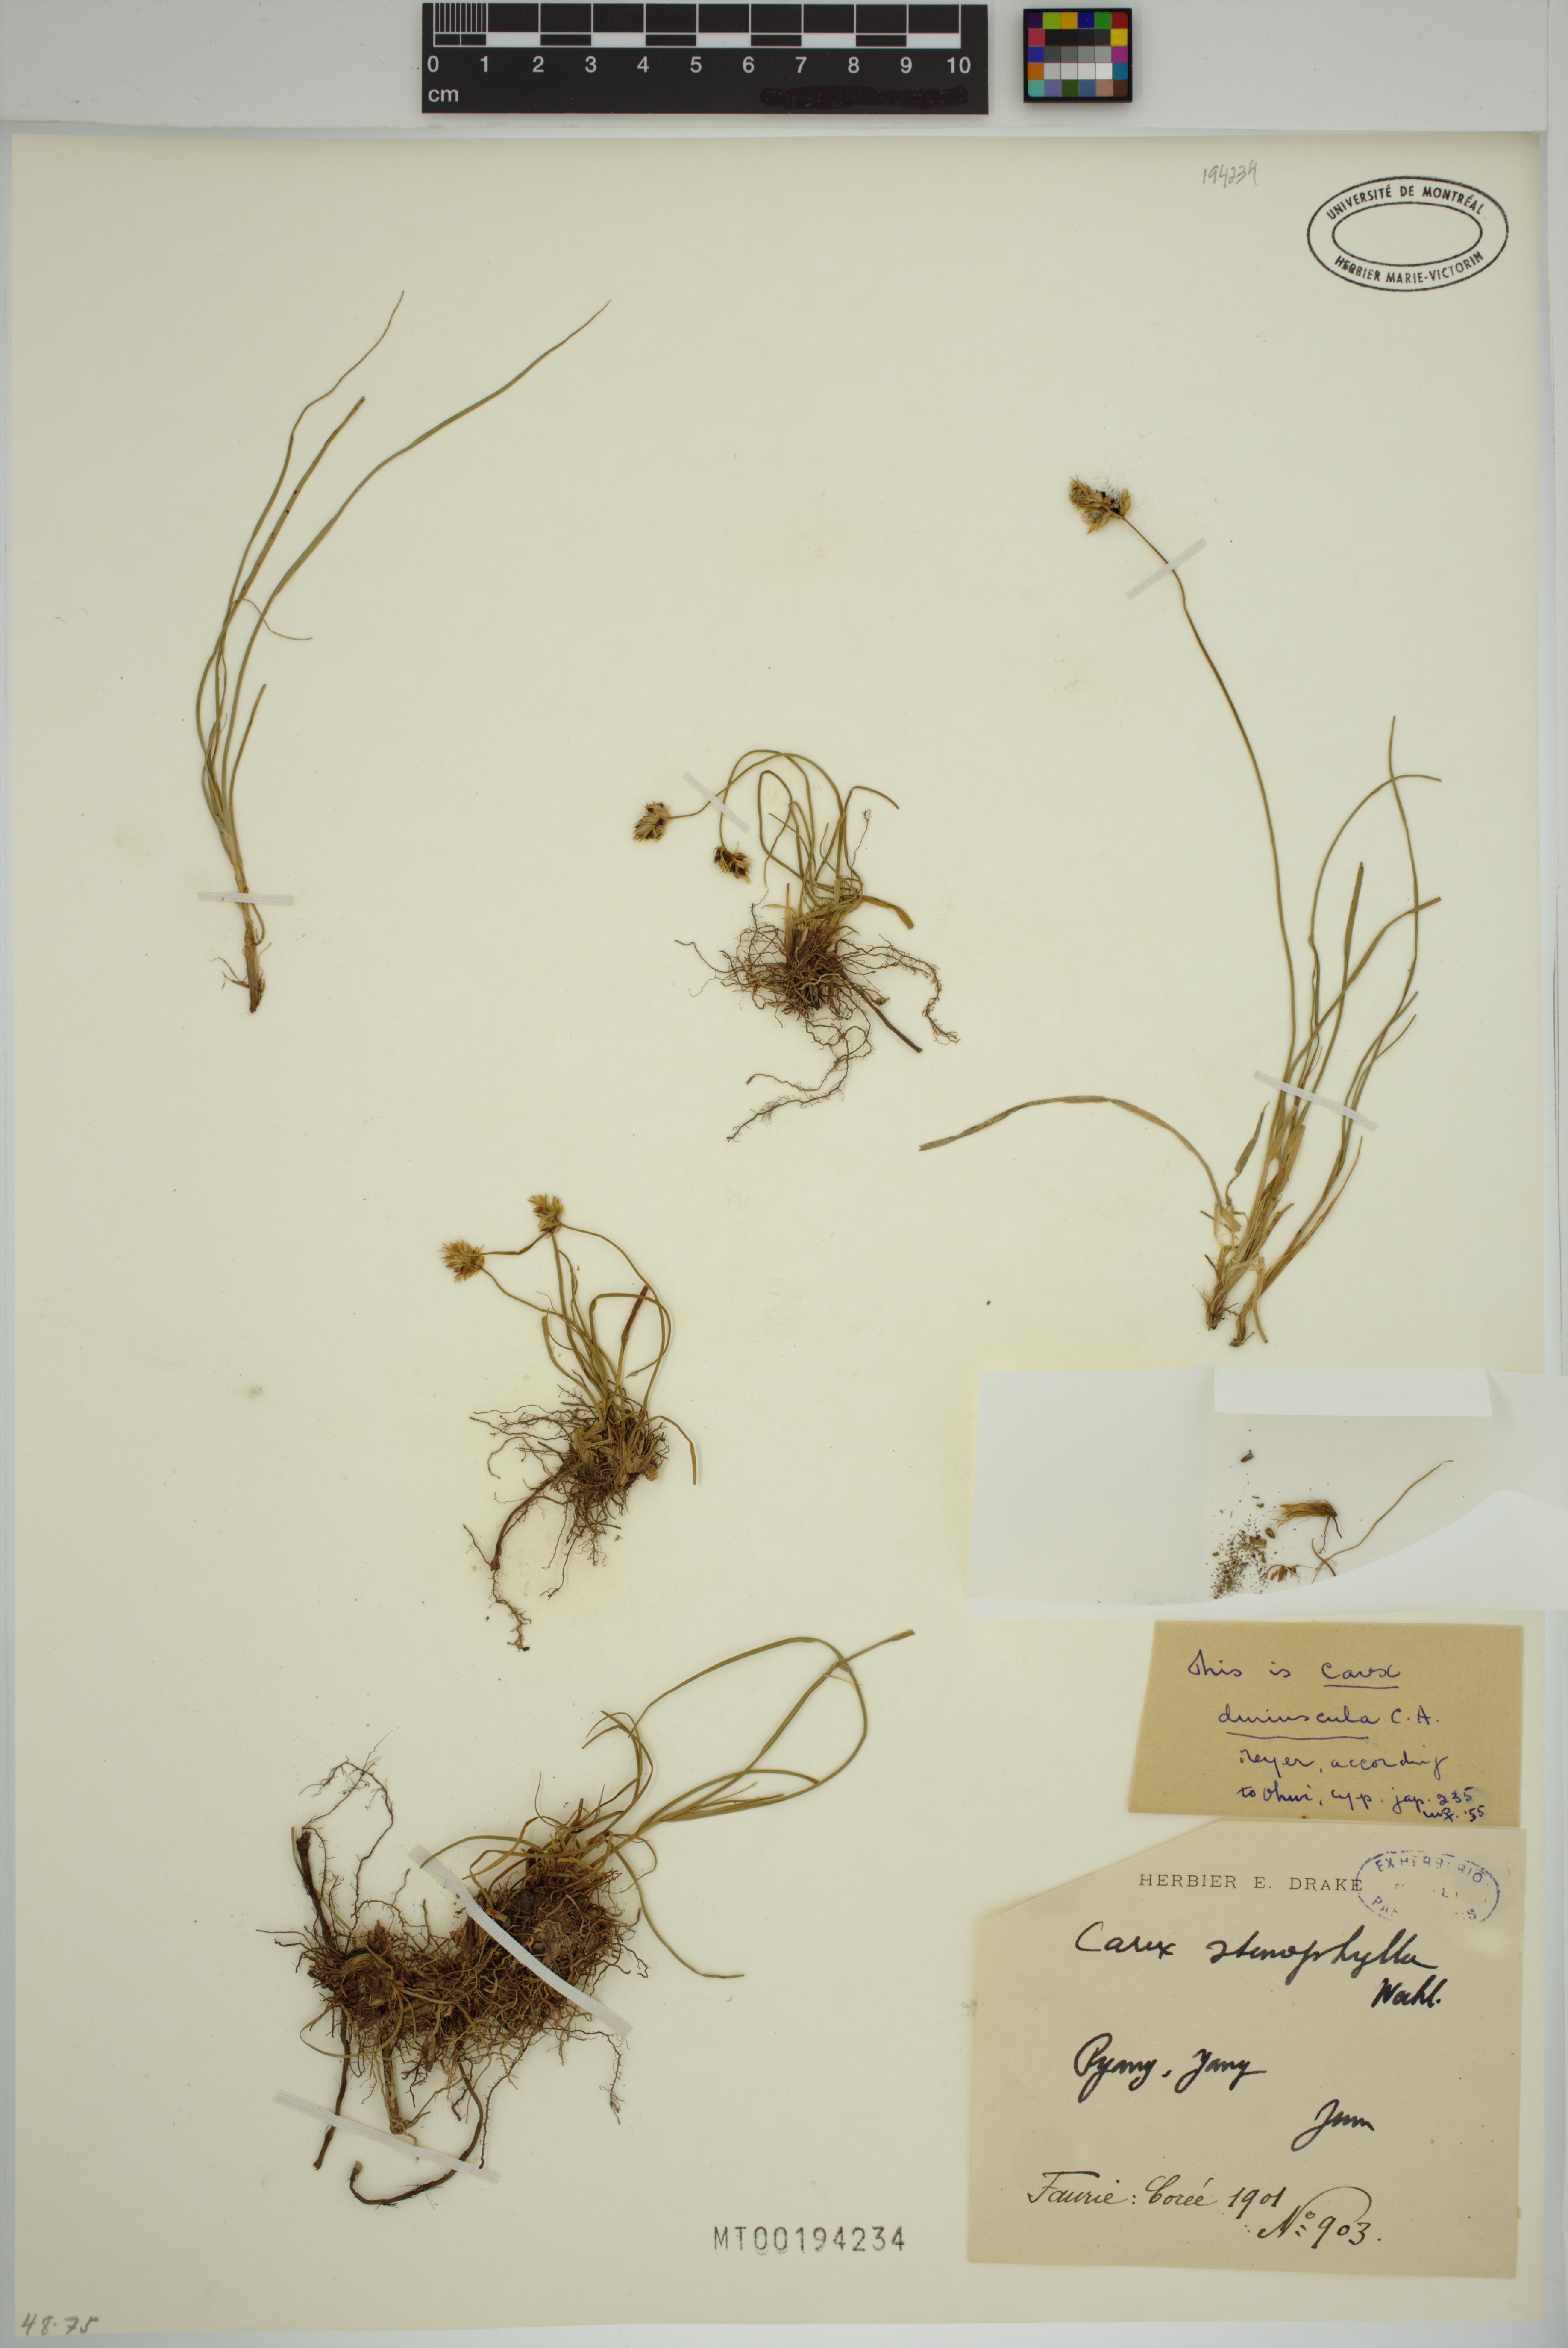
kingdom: Plantae
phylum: Tracheophyta
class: Liliopsida
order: Poales
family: Cyperaceae
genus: Carex
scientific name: Carex duriuscula
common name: Involute-leaved sedge
